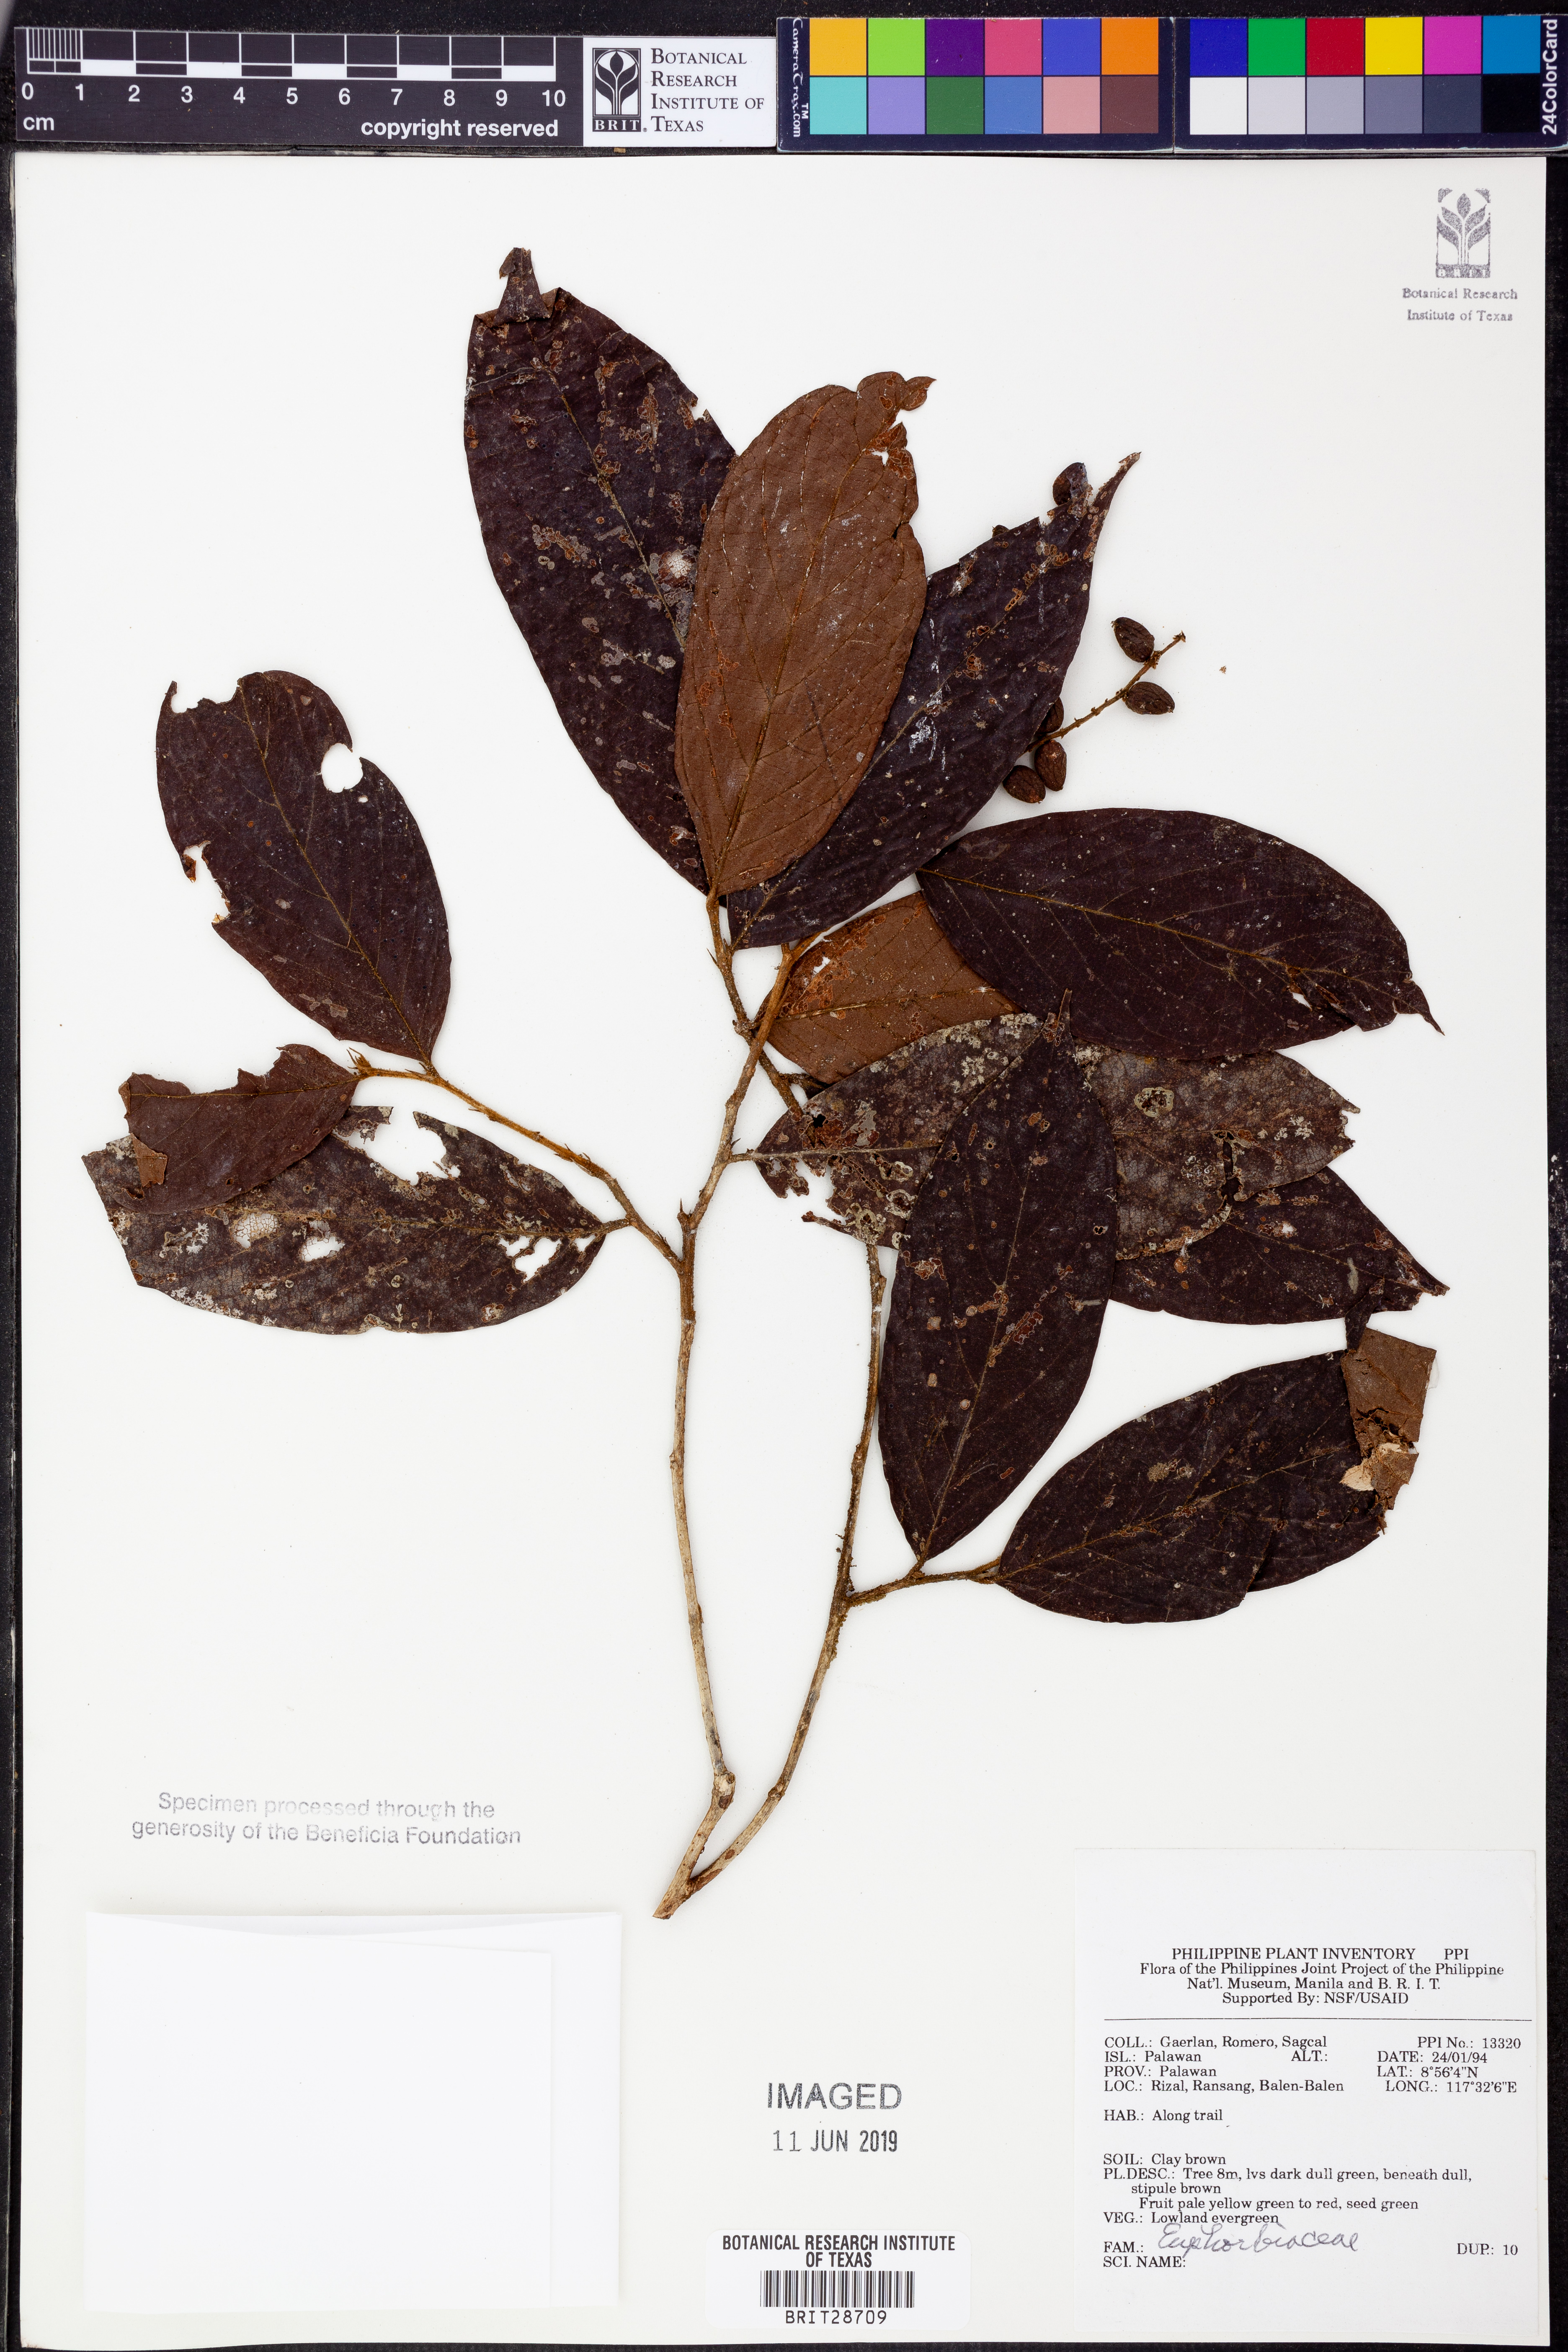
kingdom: Plantae
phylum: Tracheophyta
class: Magnoliopsida
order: Malpighiales
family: Euphorbiaceae
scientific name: Euphorbiaceae
